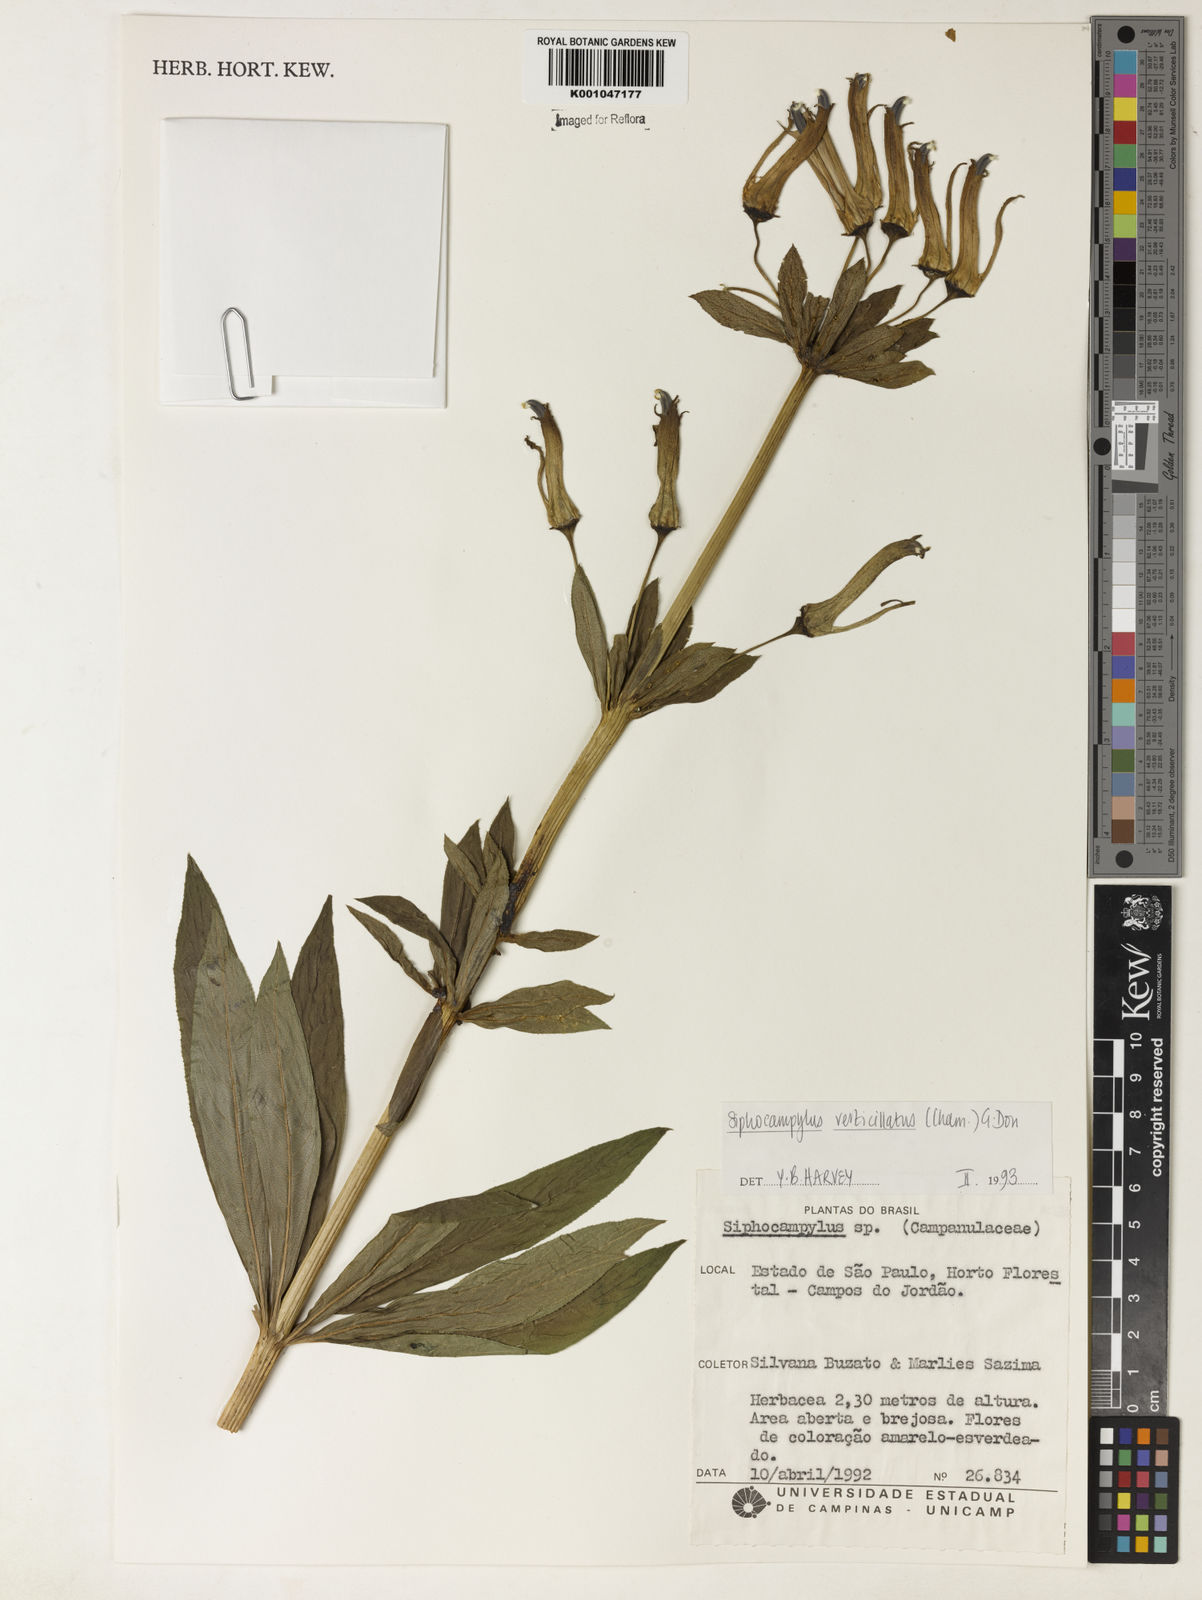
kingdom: Plantae
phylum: Tracheophyta
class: Magnoliopsida
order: Asterales
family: Campanulaceae
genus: Siphocampylus
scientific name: Siphocampylus verticillatus
